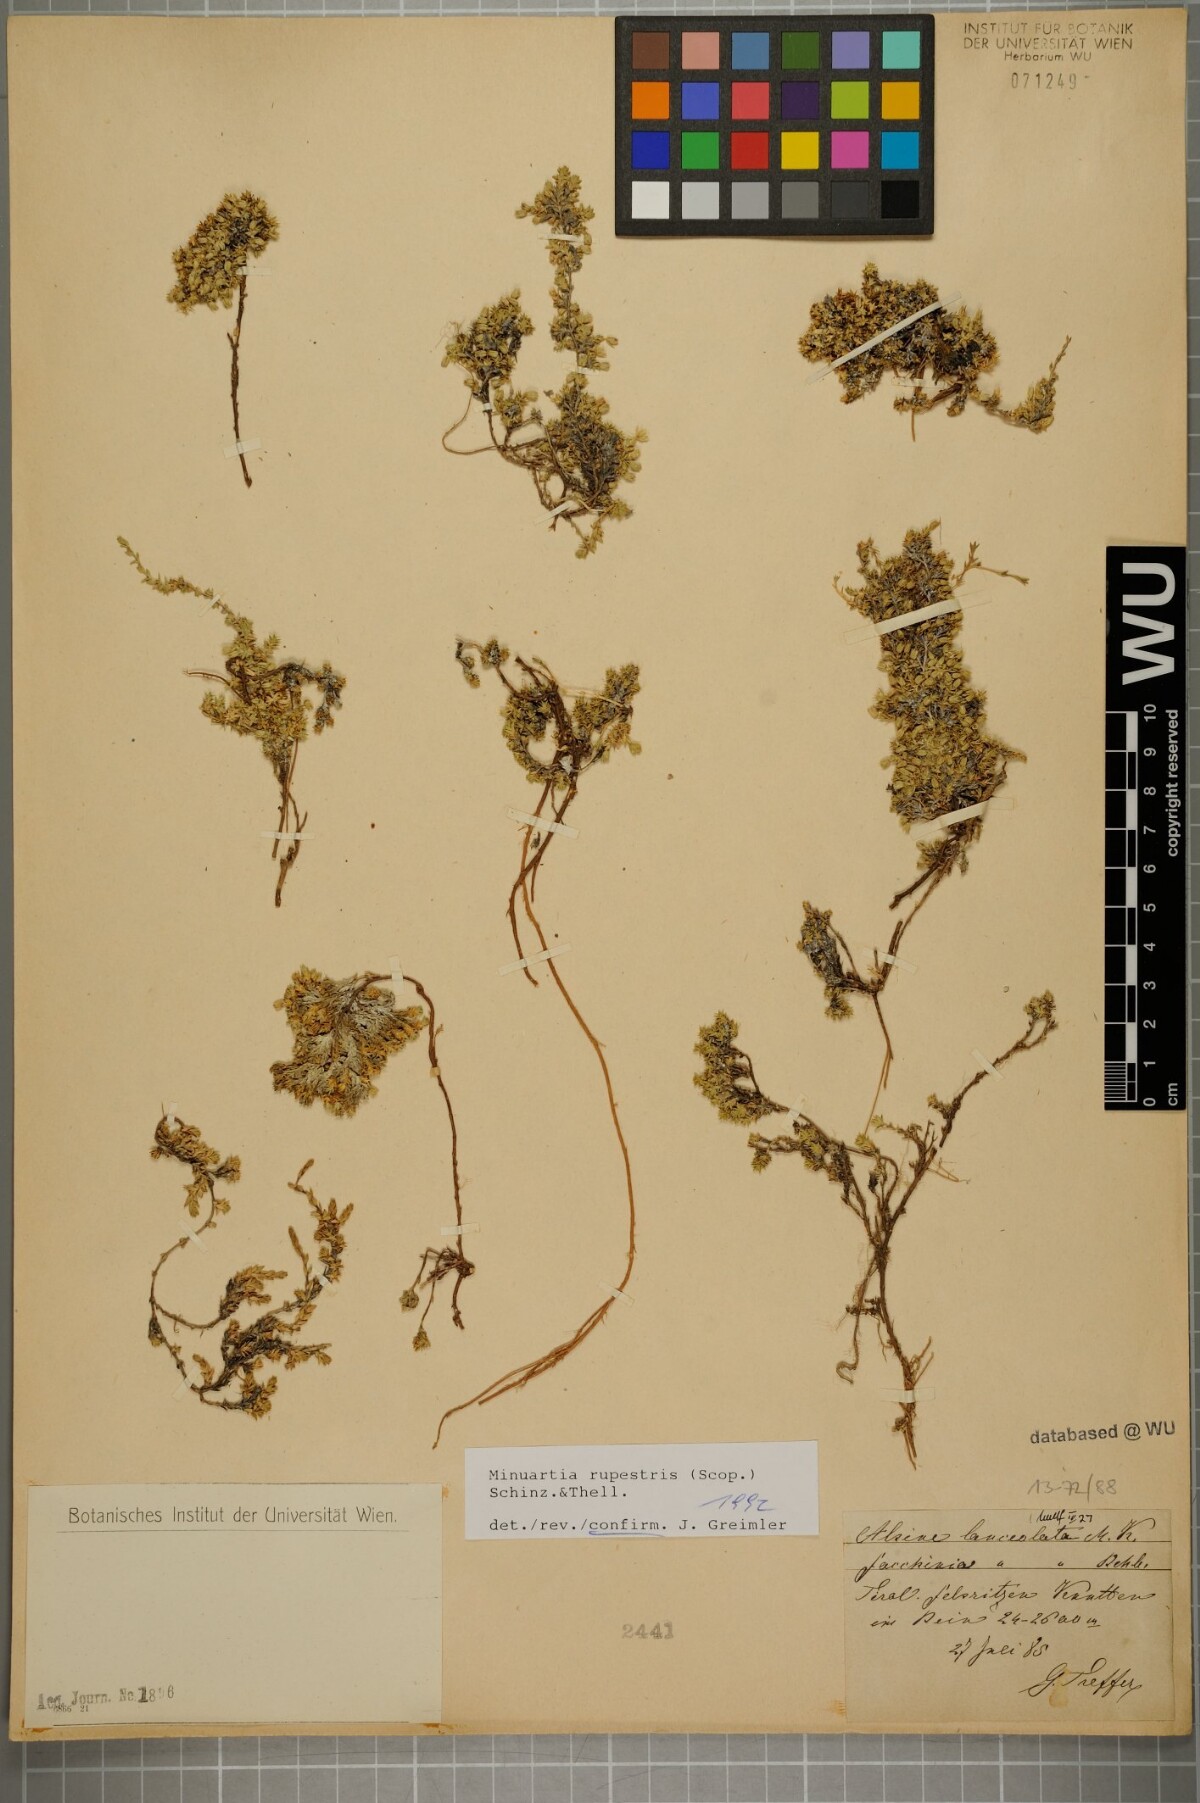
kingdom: Plantae
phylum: Tracheophyta
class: Magnoliopsida
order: Caryophyllales
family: Caryophyllaceae
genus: Facchinia
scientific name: Facchinia rupestris
